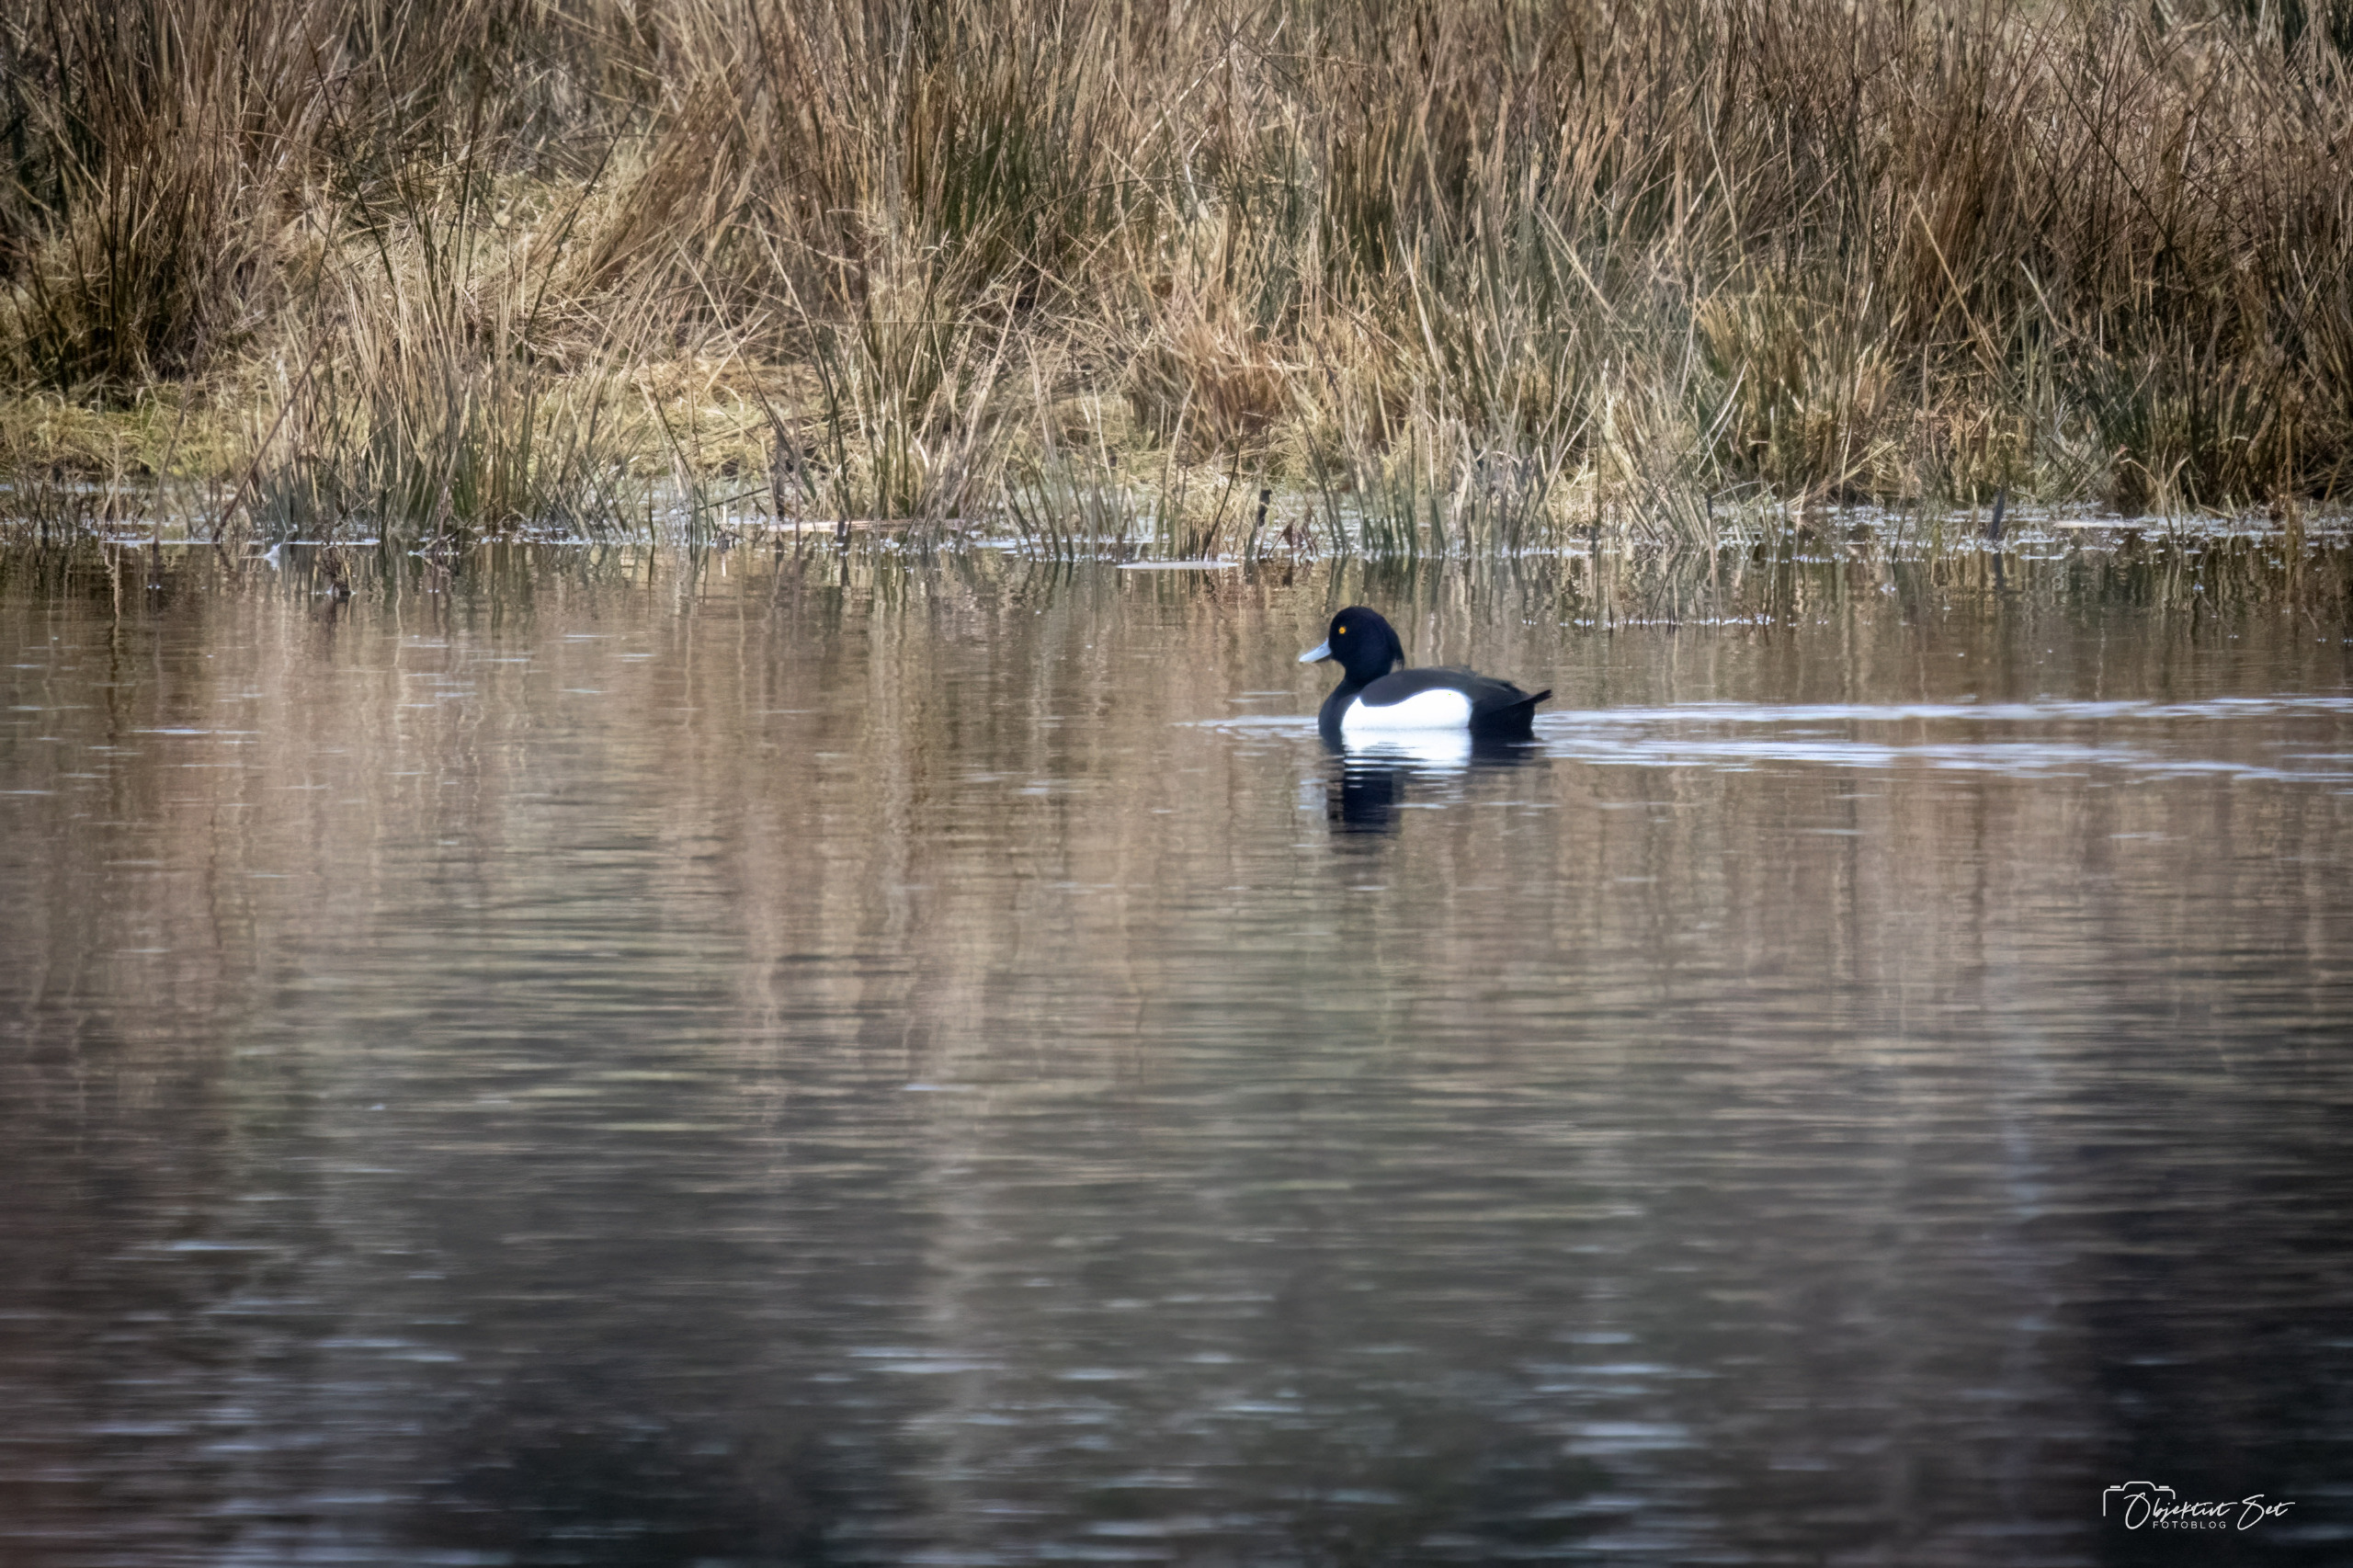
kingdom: Animalia
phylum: Chordata
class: Aves
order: Anseriformes
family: Anatidae
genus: Aythya
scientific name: Aythya fuligula
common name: Troldand
